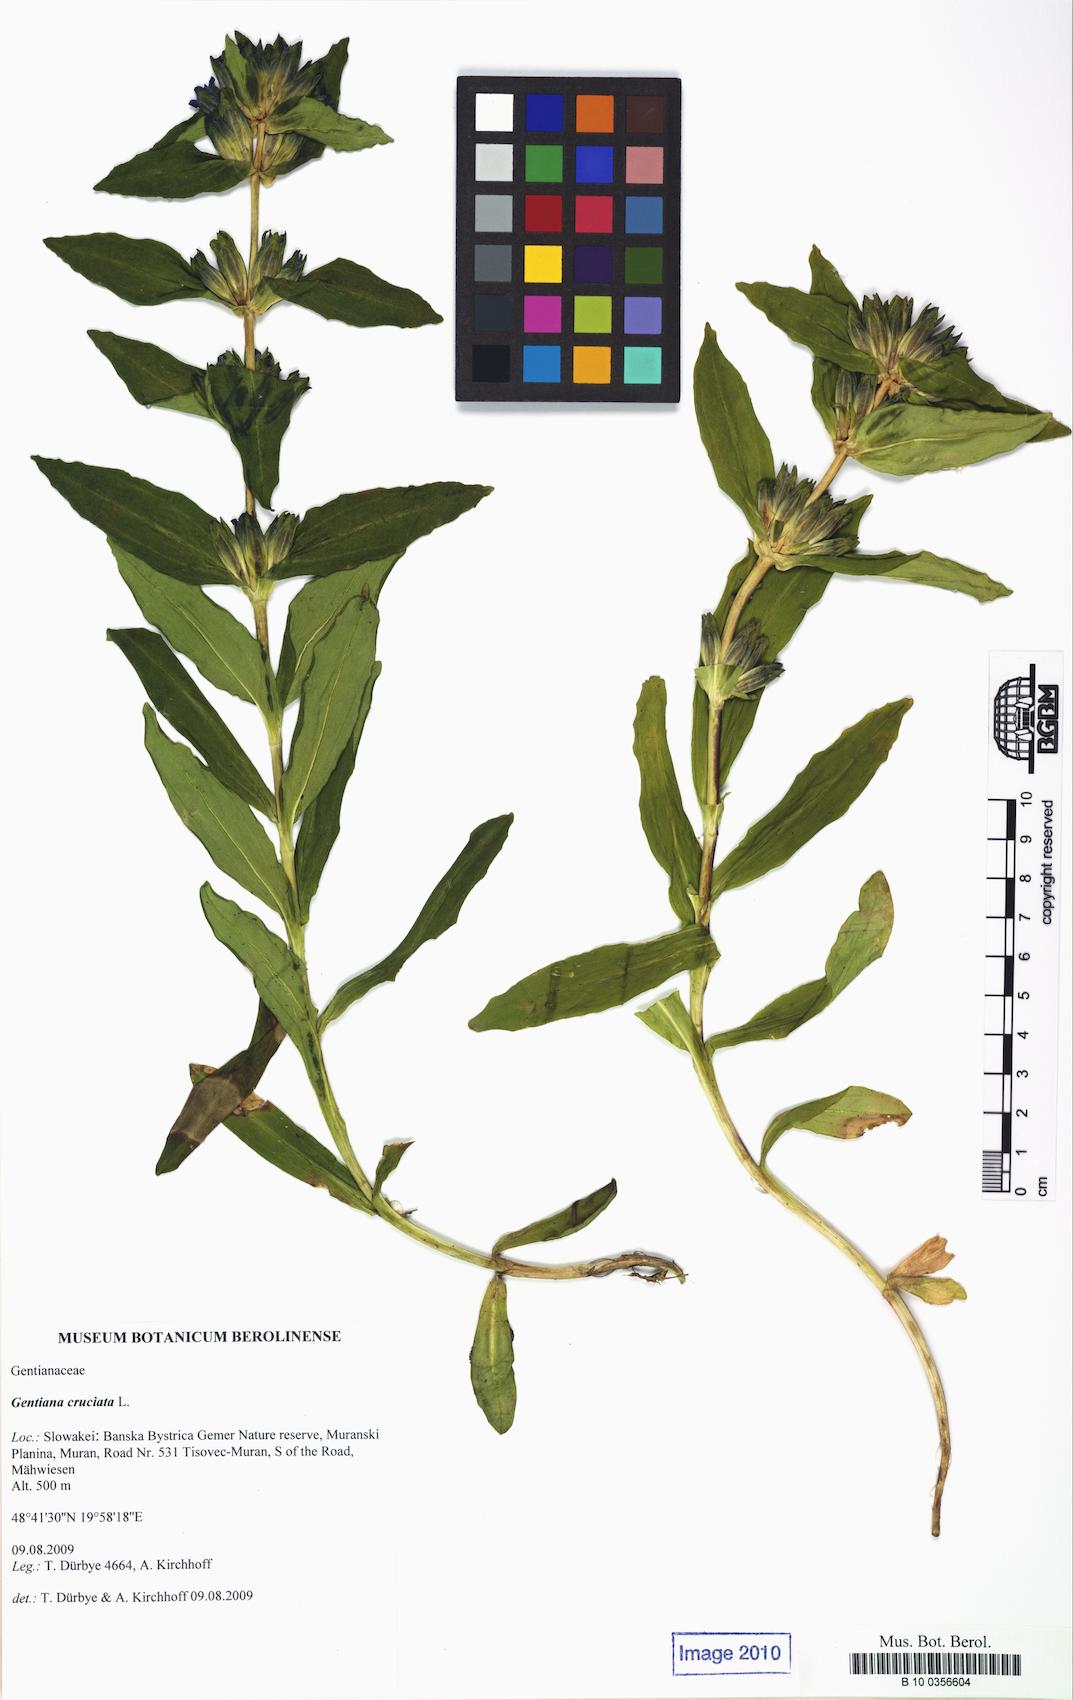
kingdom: Plantae
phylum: Tracheophyta
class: Magnoliopsida
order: Gentianales
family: Gentianaceae
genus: Gentiana
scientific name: Gentiana cruciata
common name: Cross gentian
